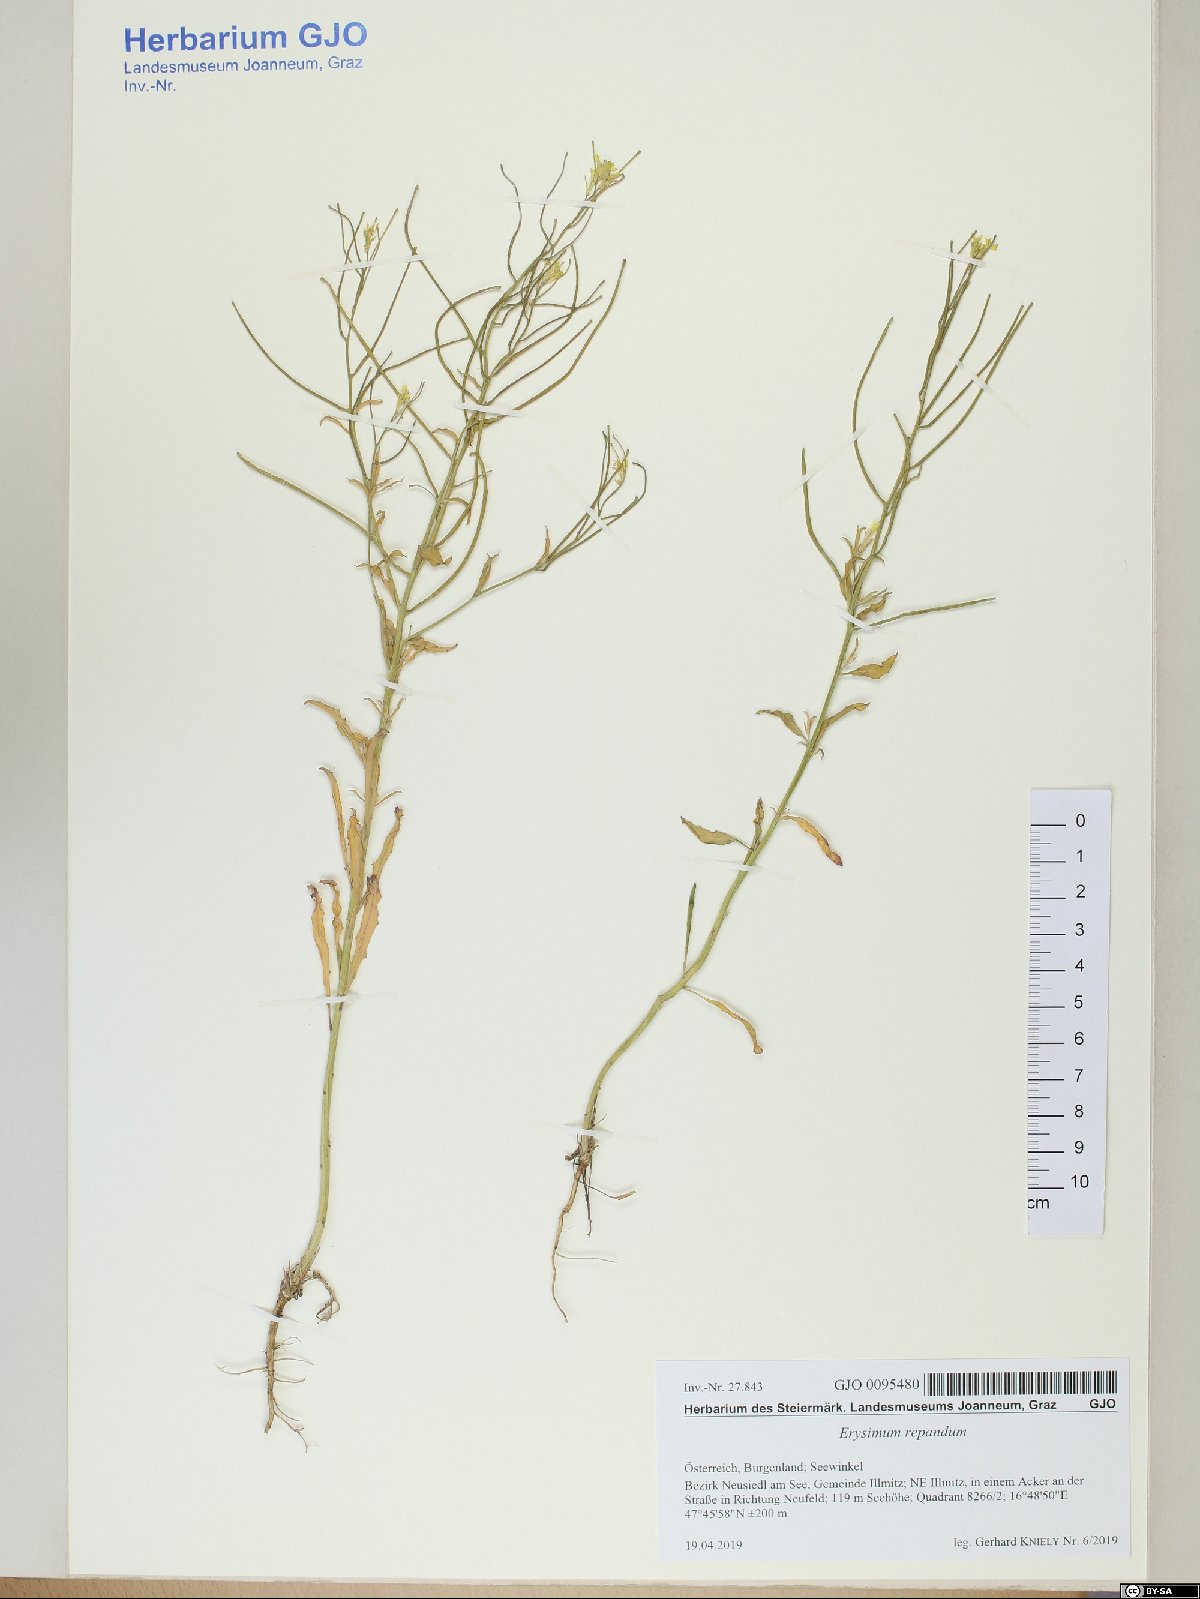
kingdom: Plantae
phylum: Tracheophyta
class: Magnoliopsida
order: Brassicales
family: Brassicaceae
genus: Erysimum
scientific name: Erysimum repandum
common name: Spreading wallflower
